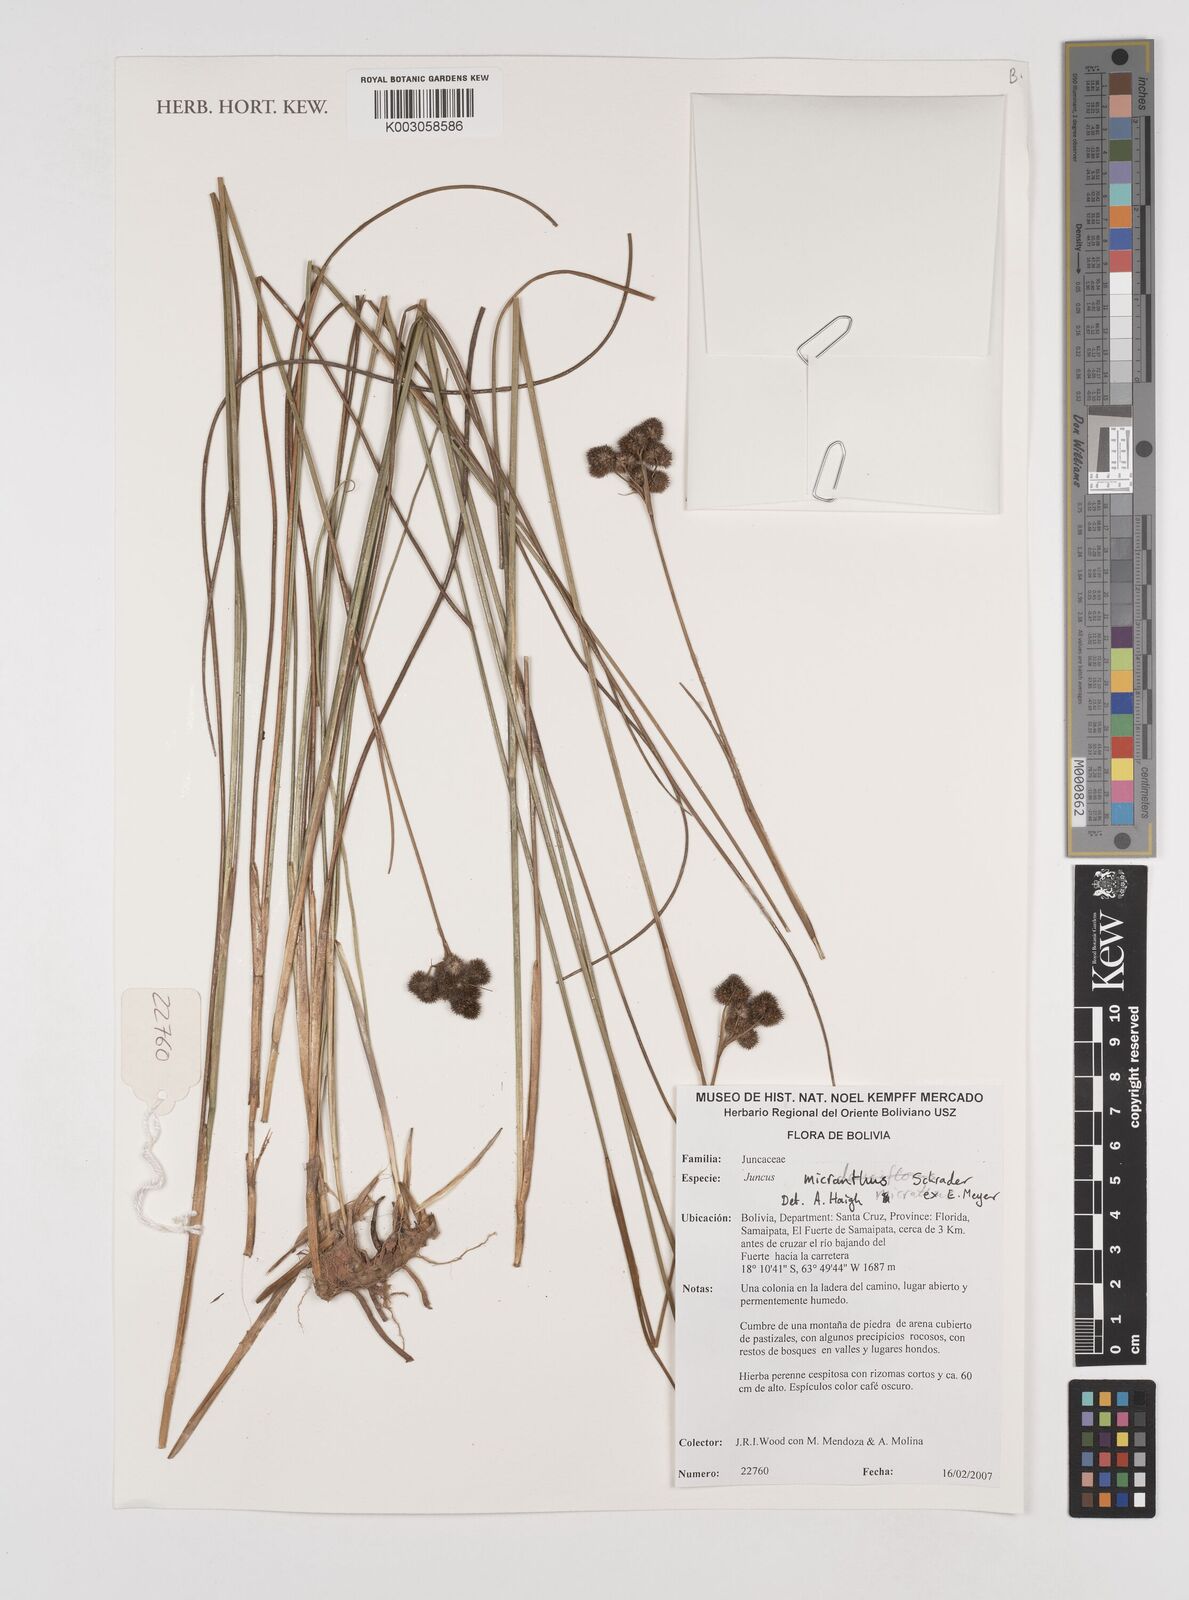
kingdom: Plantae
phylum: Tracheophyta
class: Liliopsida
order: Poales
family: Juncaceae
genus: Juncus
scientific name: Juncus micranthus
